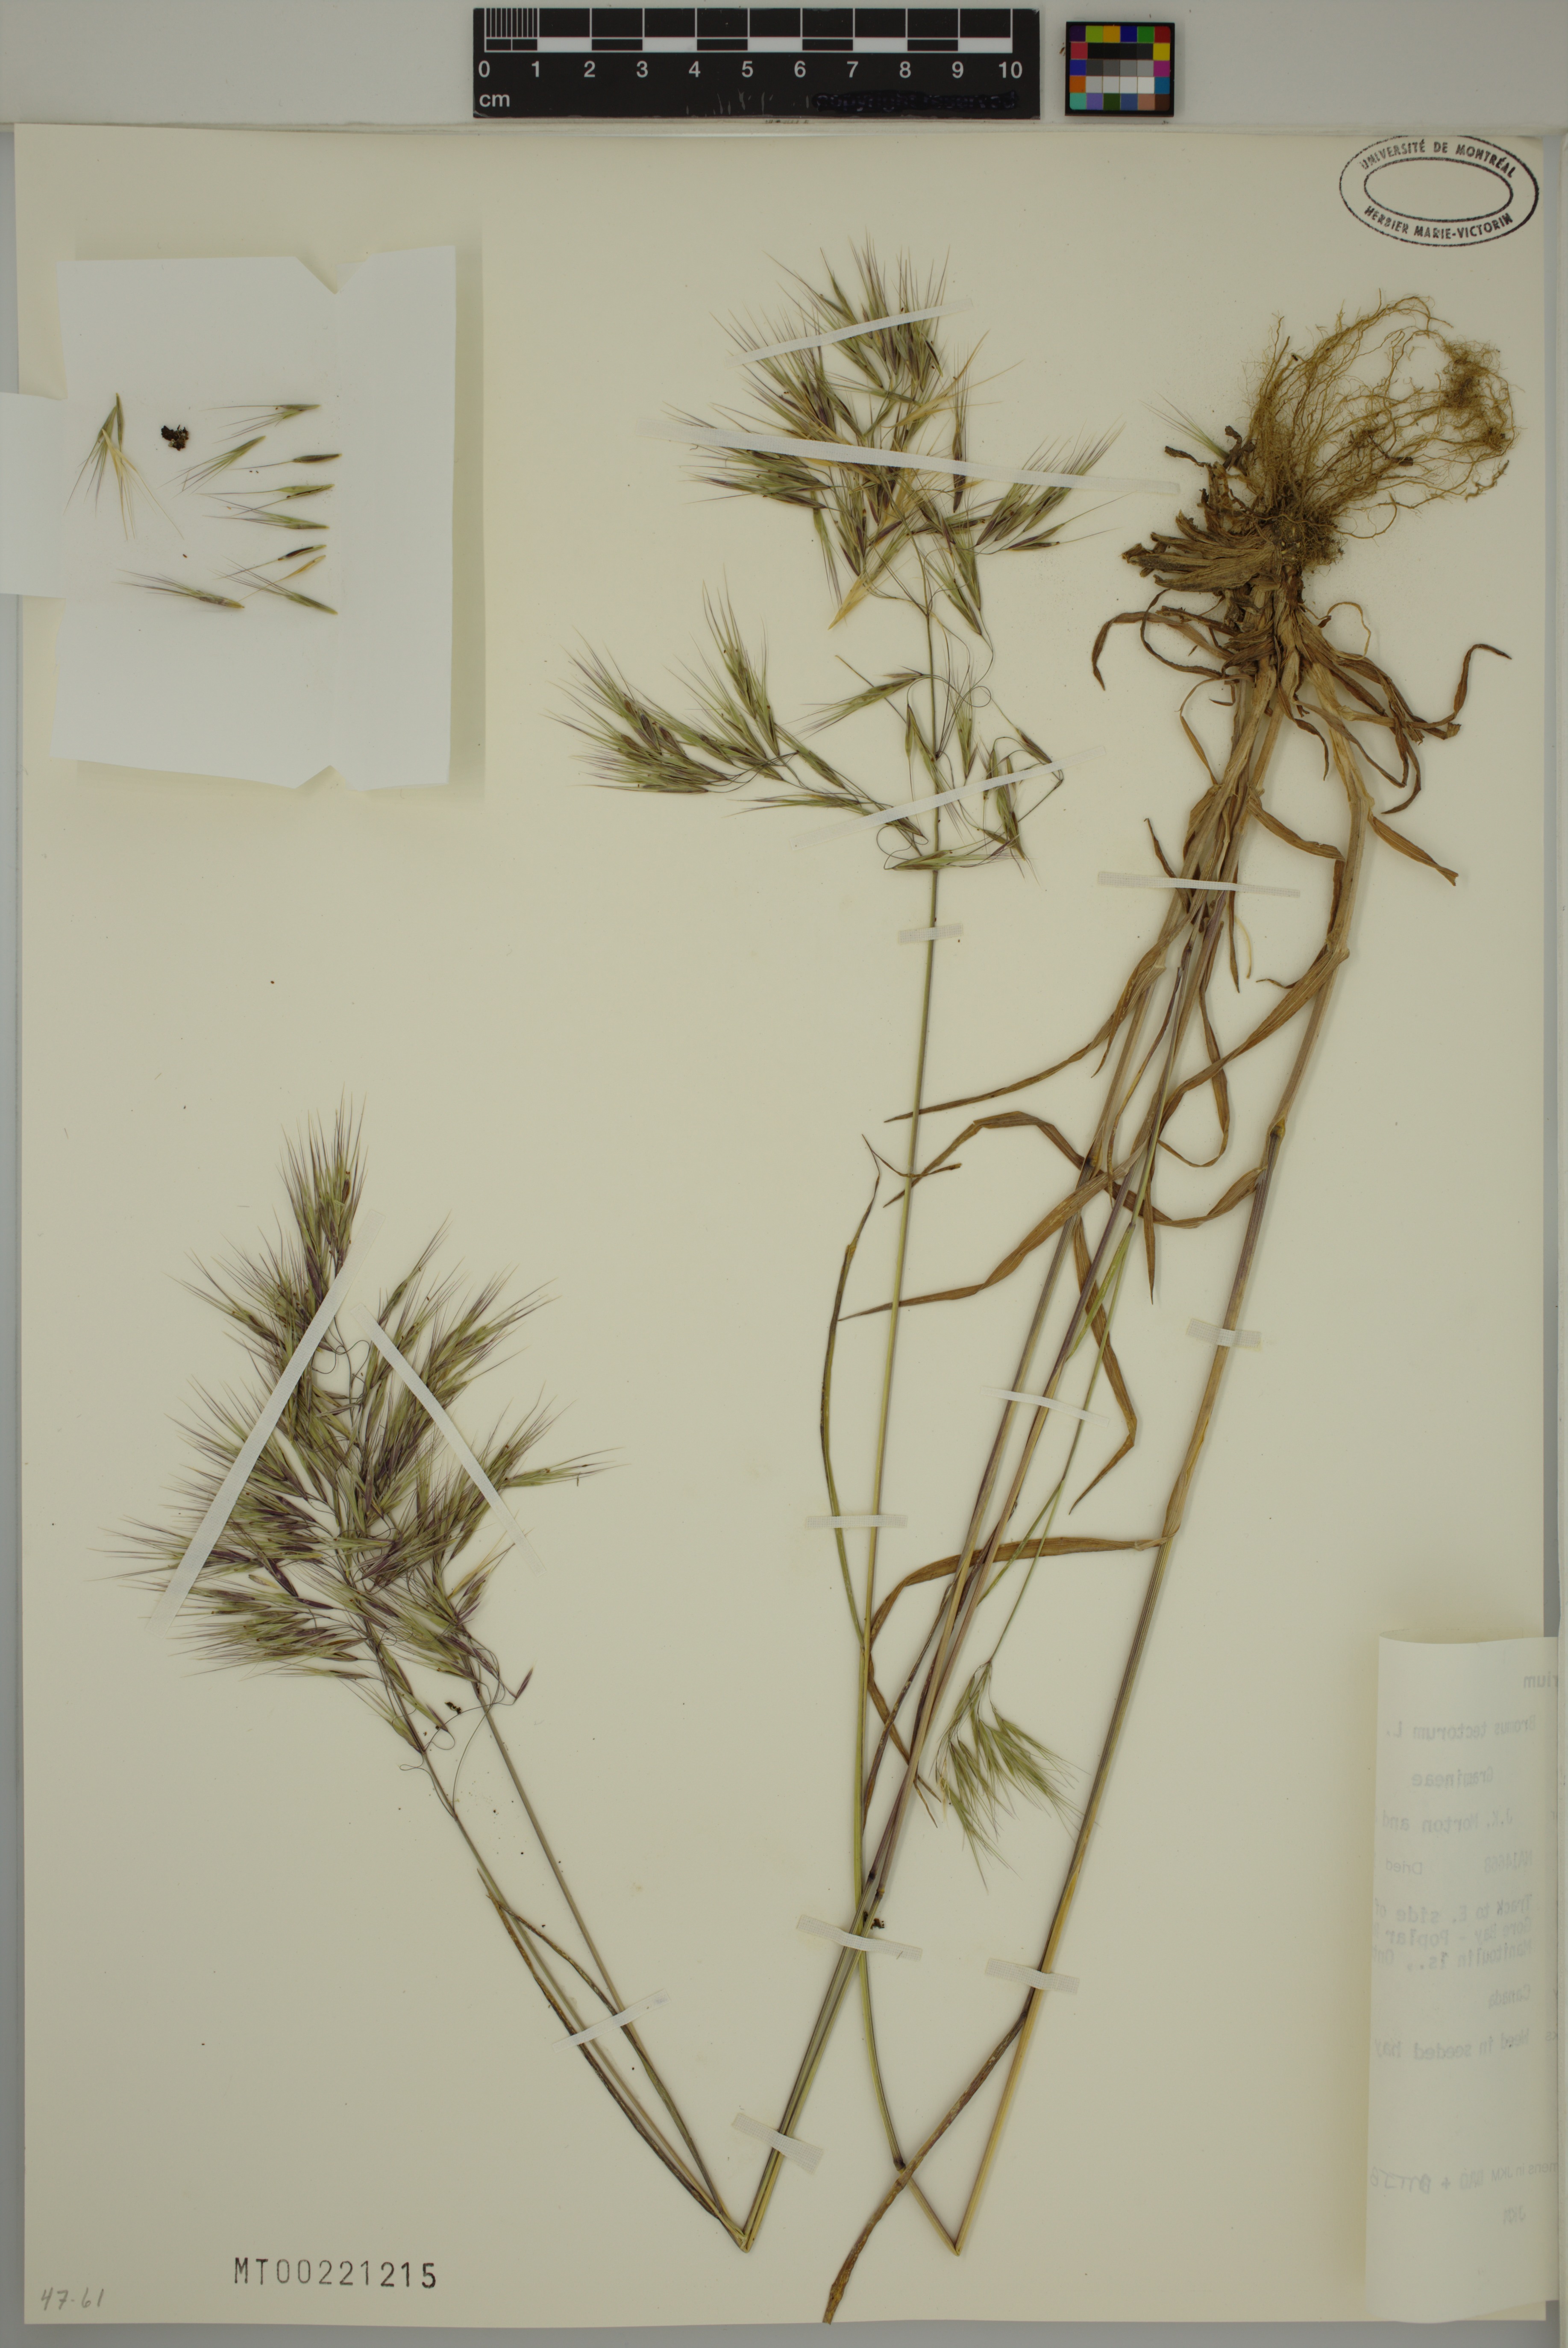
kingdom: Plantae
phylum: Tracheophyta
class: Liliopsida
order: Poales
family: Poaceae
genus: Bromus
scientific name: Bromus tectorum
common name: Cheatgrass
